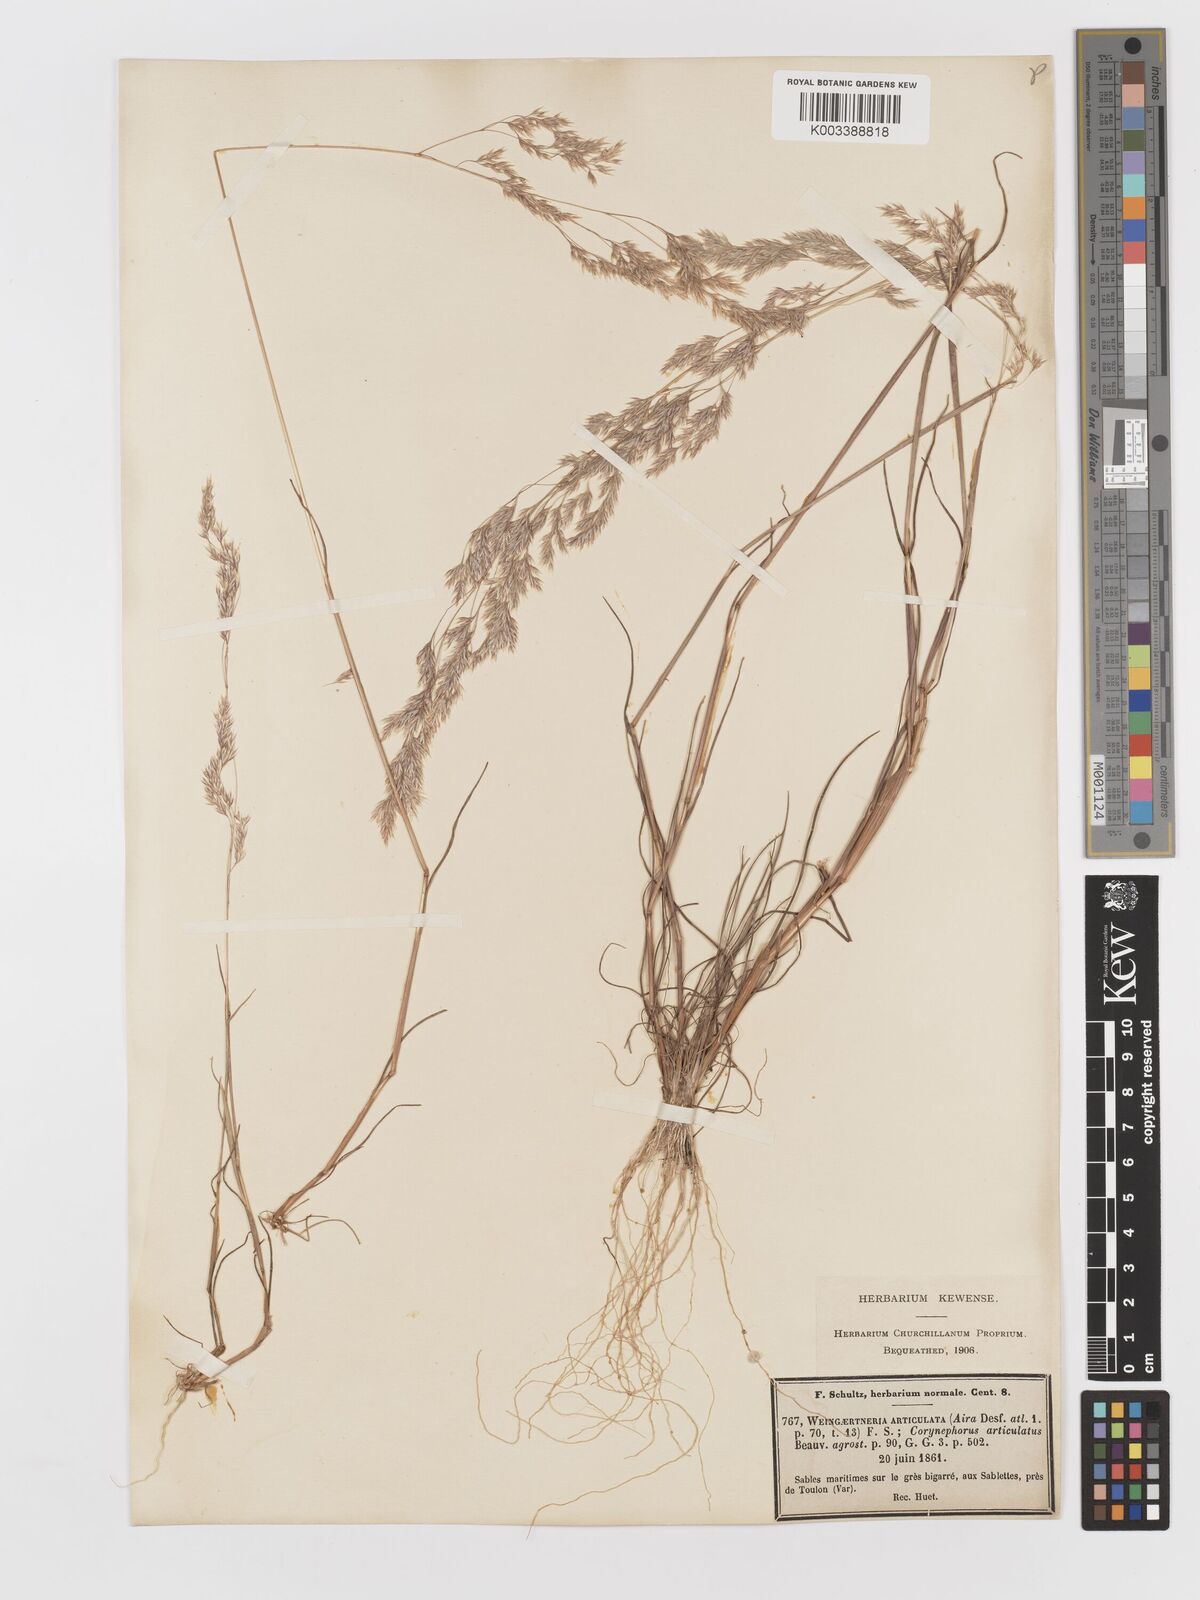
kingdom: Plantae
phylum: Tracheophyta
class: Liliopsida
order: Poales
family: Poaceae
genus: Corynephorus
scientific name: Corynephorus divaricatus
